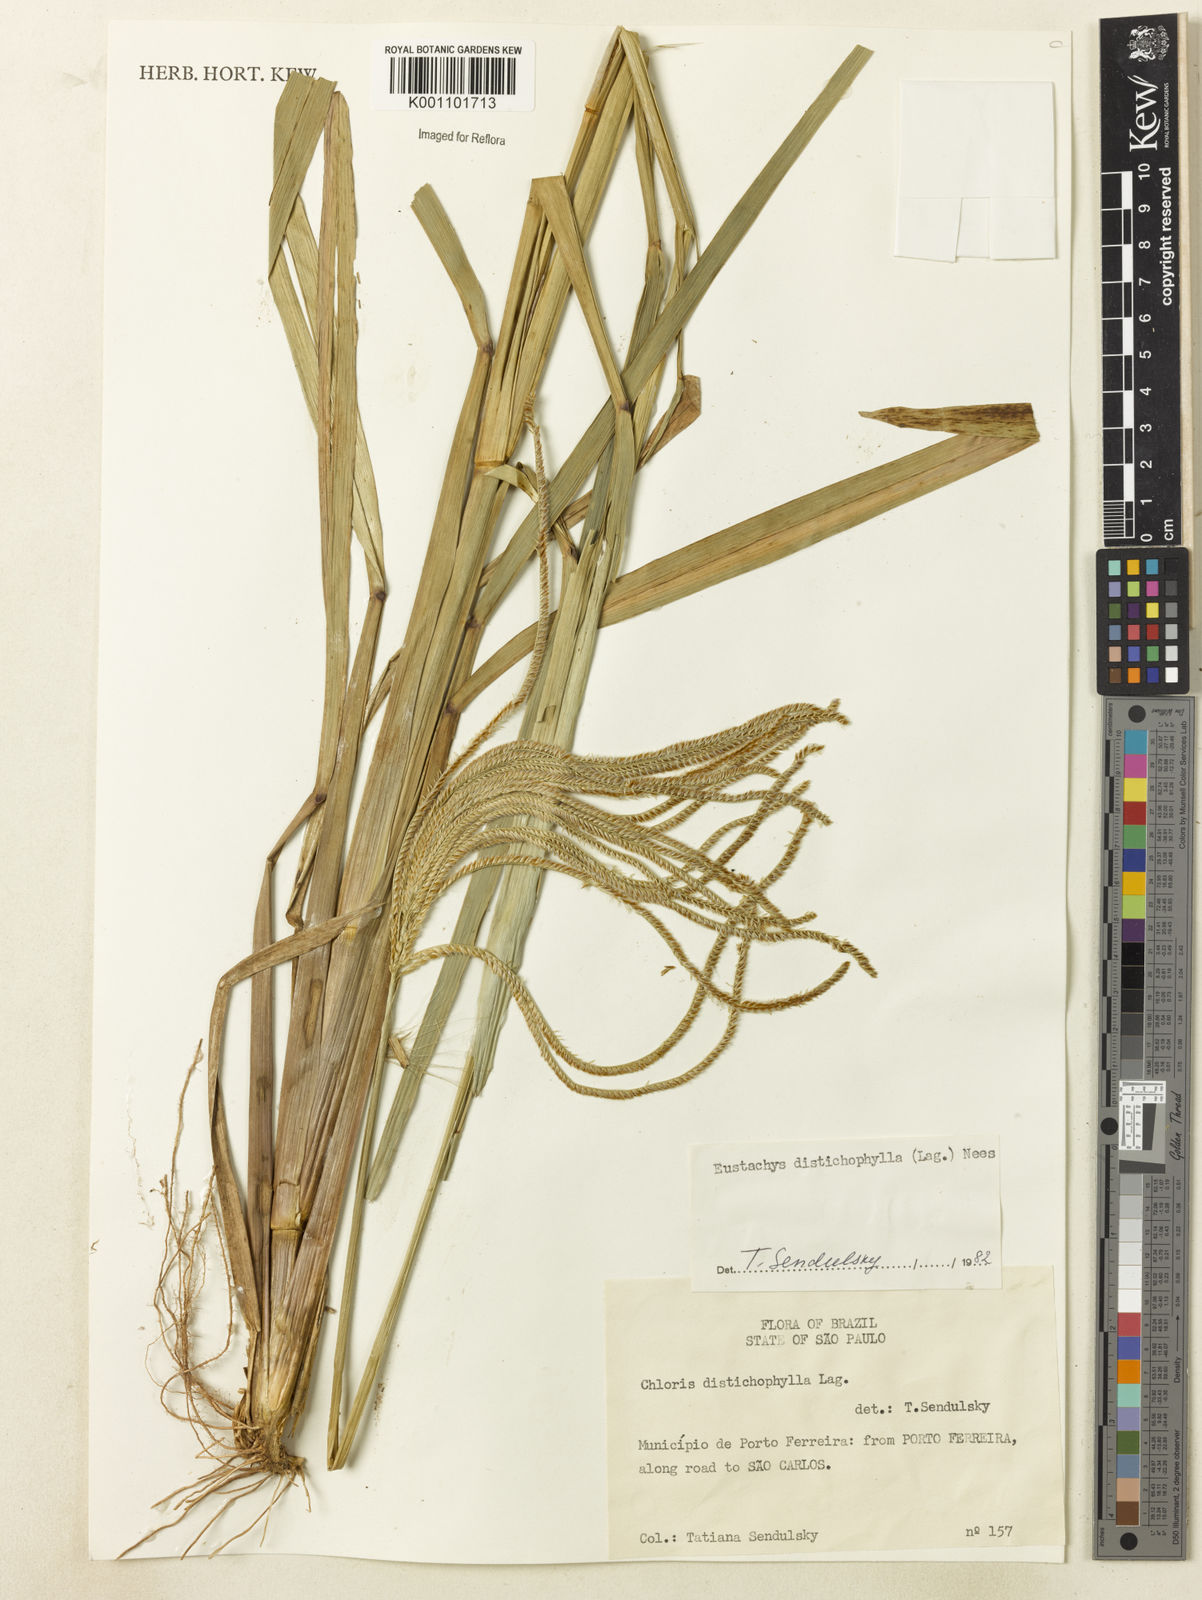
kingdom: Plantae
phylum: Tracheophyta
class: Liliopsida
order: Poales
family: Poaceae
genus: Eustachys
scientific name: Eustachys distichophylla
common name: Weeping fingergrass
